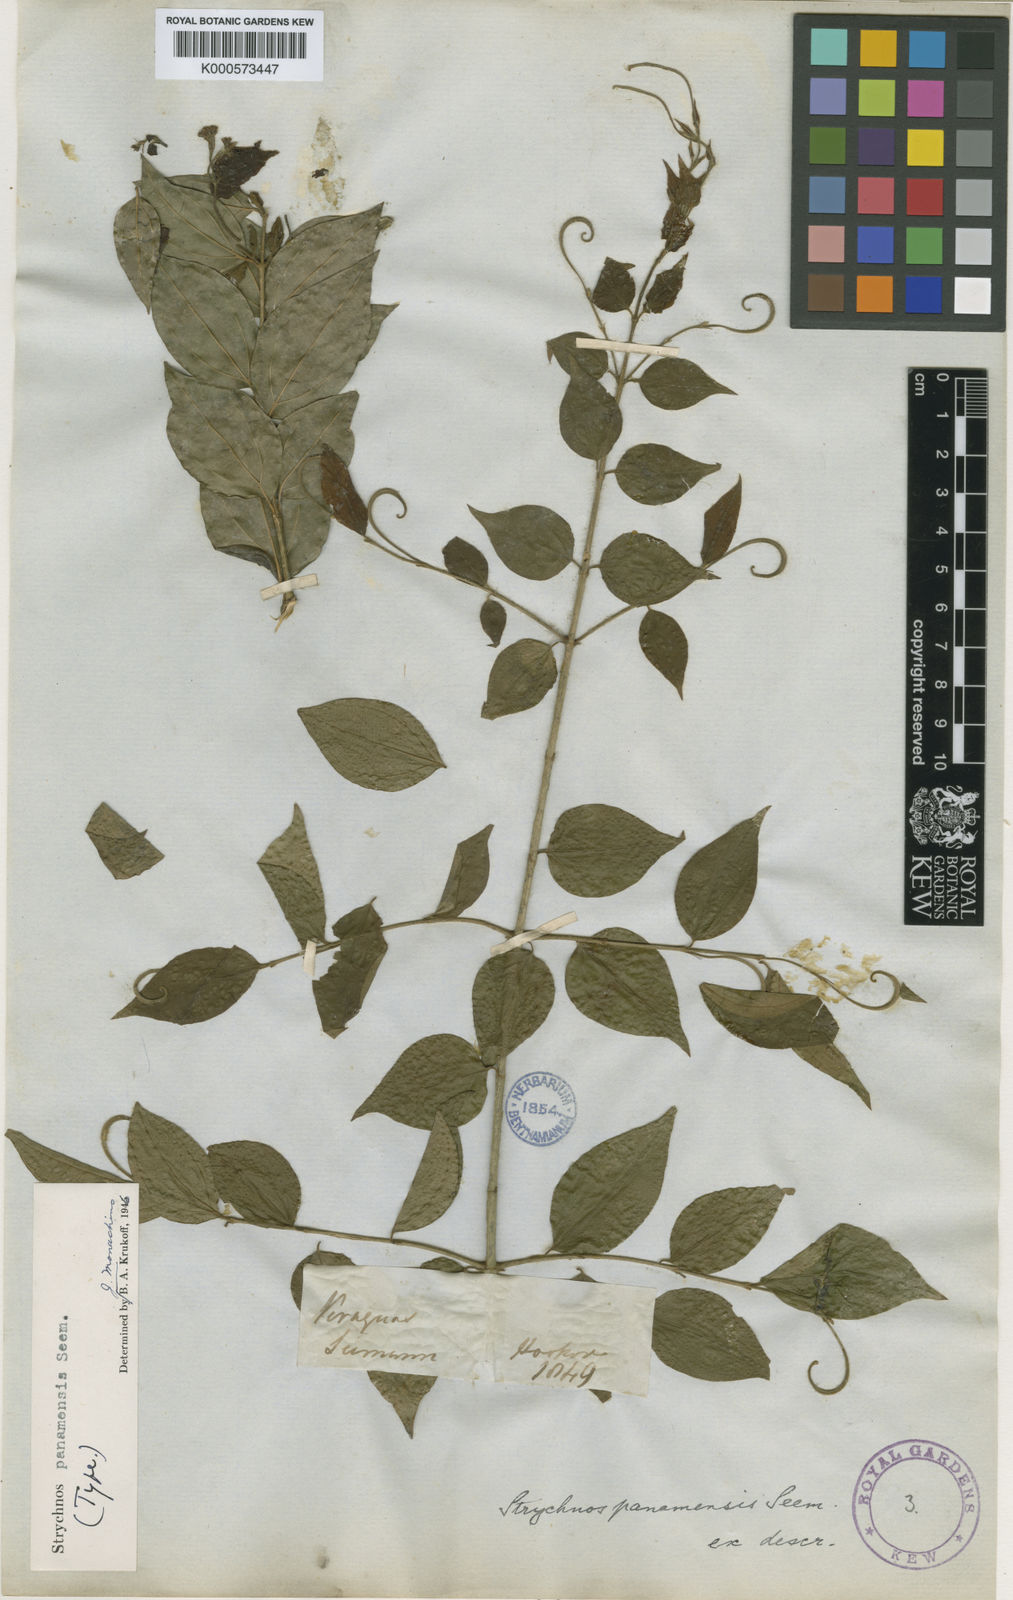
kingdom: Plantae
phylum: Tracheophyta
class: Magnoliopsida
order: Gentianales
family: Loganiaceae
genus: Strychnos
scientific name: Strychnos panamensis
